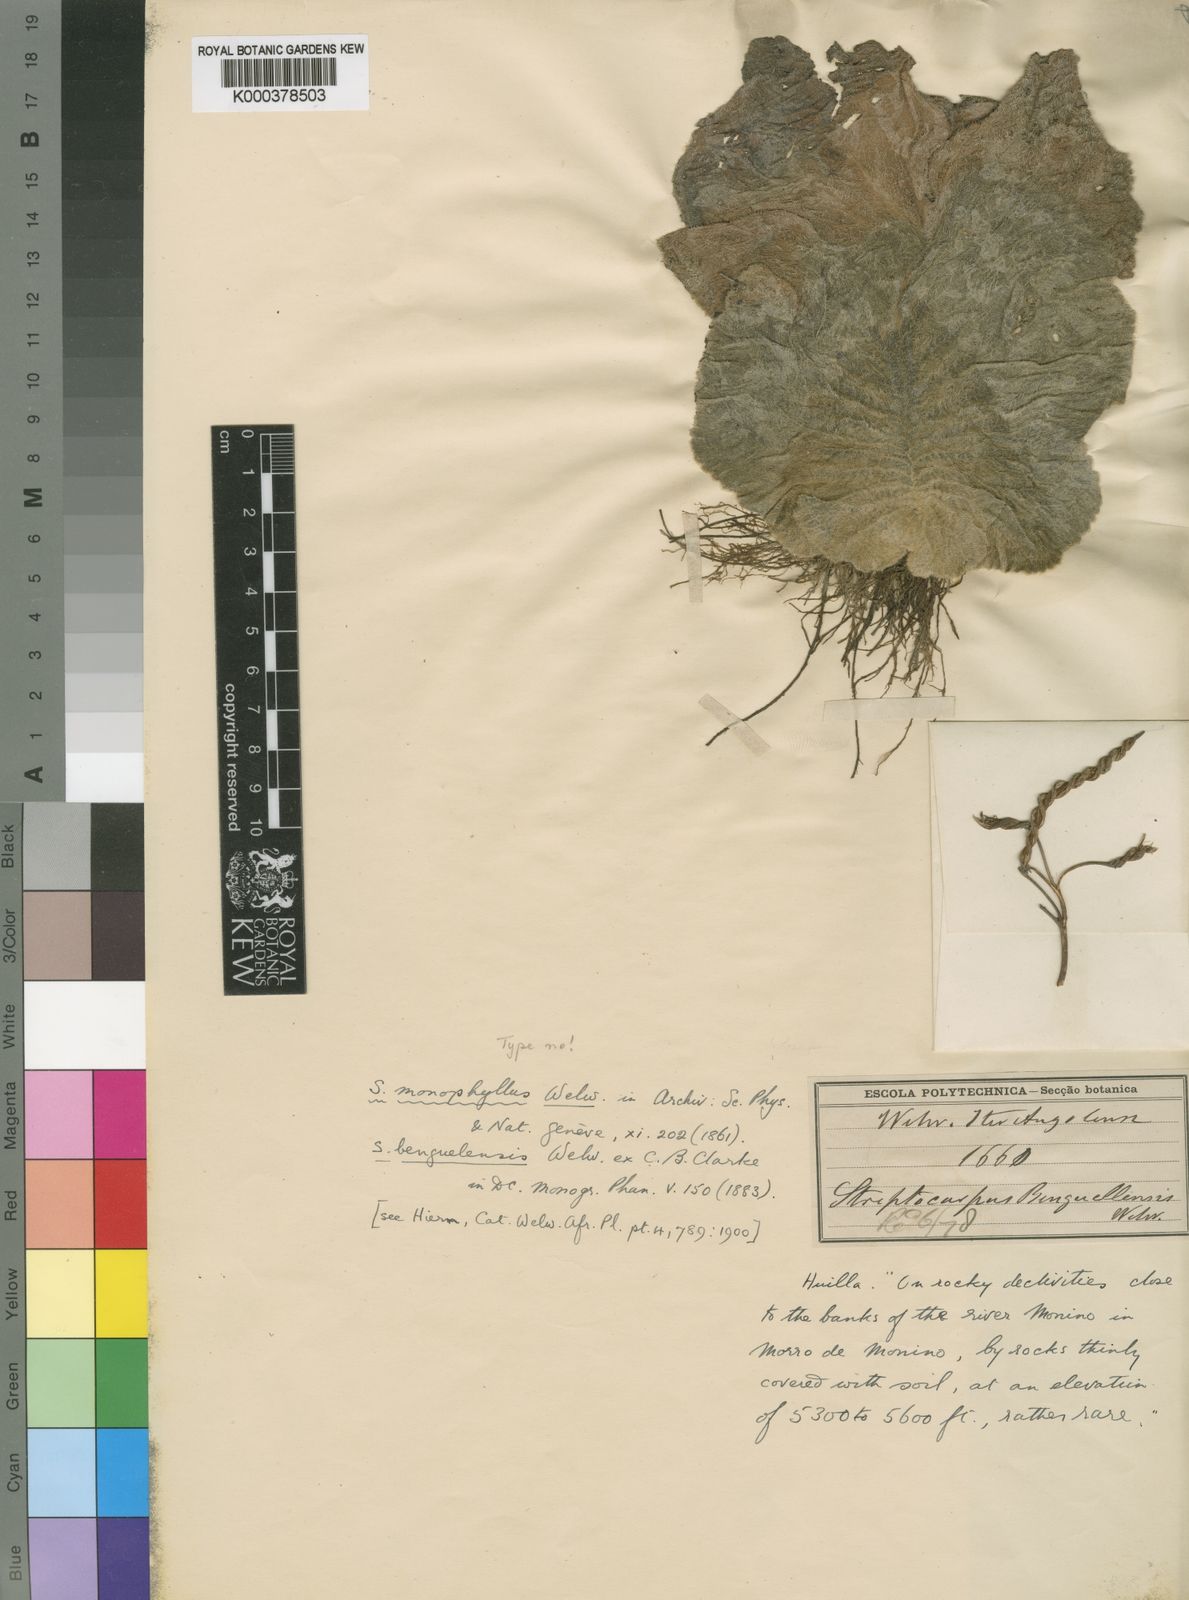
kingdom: Plantae
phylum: Tracheophyta
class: Magnoliopsida
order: Lamiales
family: Gesneriaceae
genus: Streptocarpus
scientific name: Streptocarpus monophyllus
